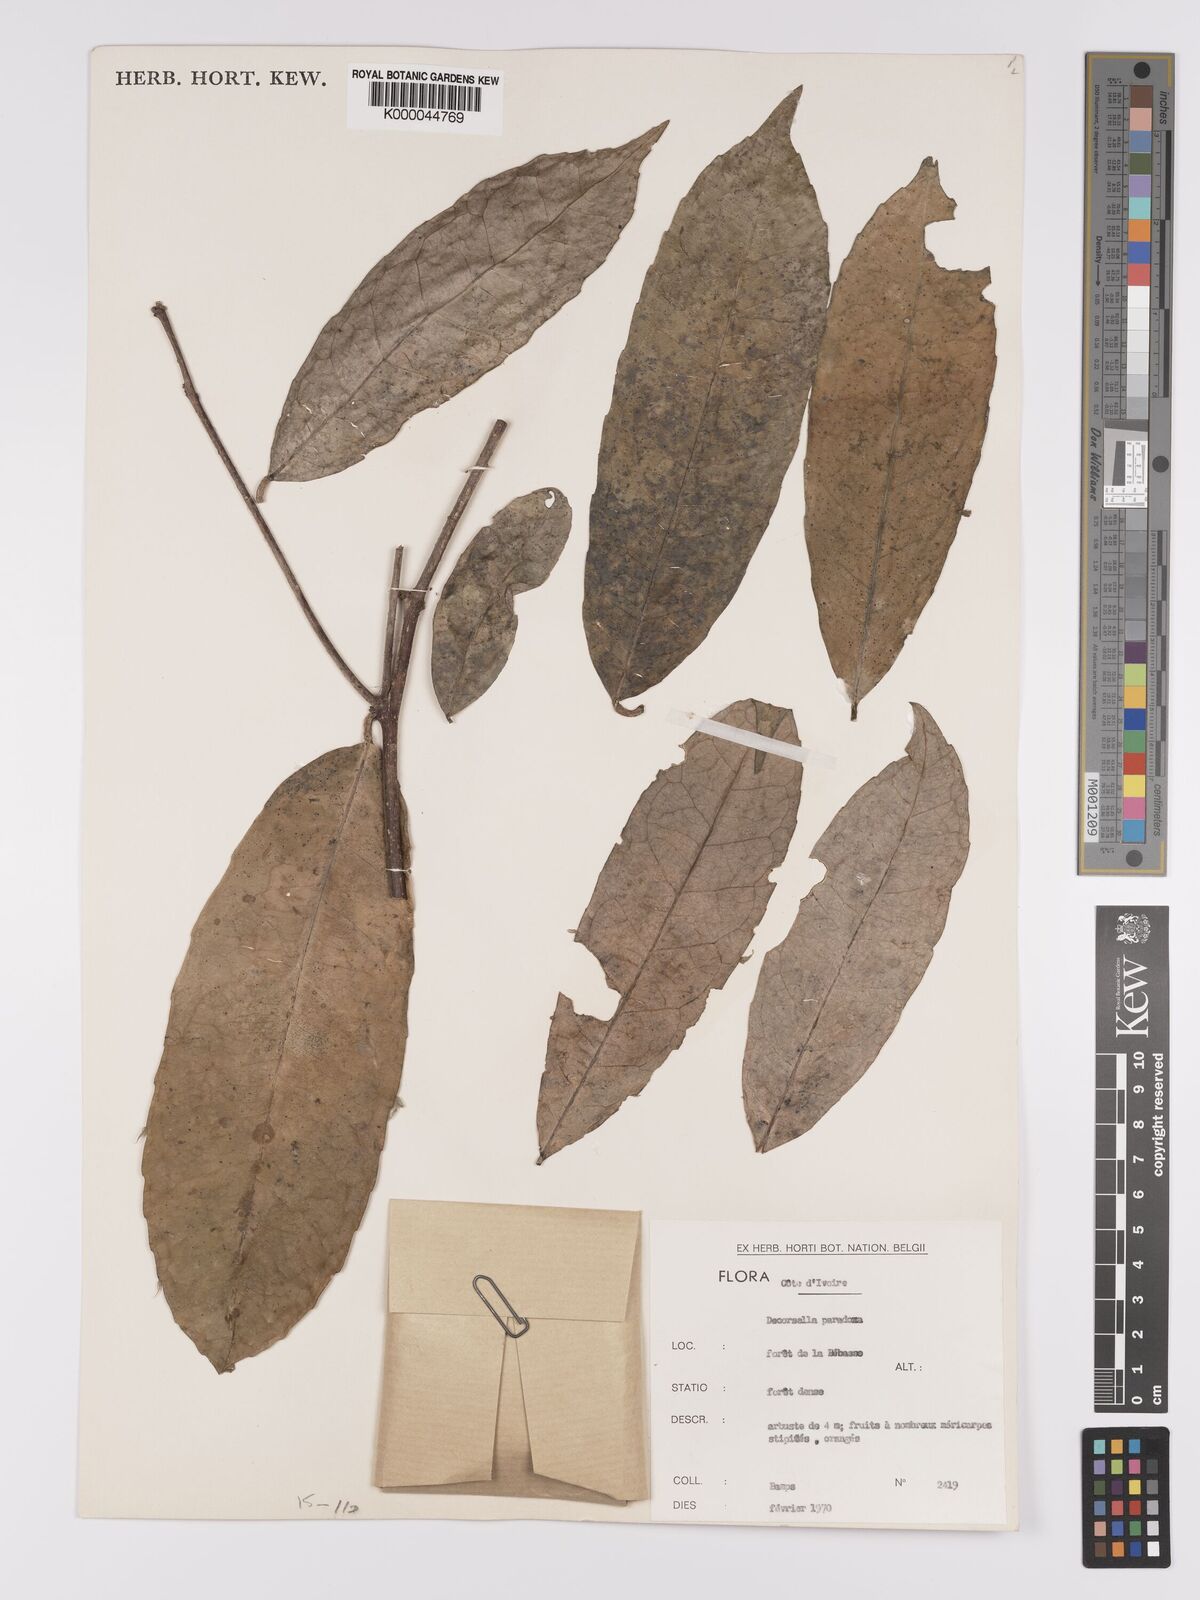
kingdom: Plantae
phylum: Tracheophyta
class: Magnoliopsida
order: Malpighiales
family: Violaceae
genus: Decorsella
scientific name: Decorsella paradoxa
